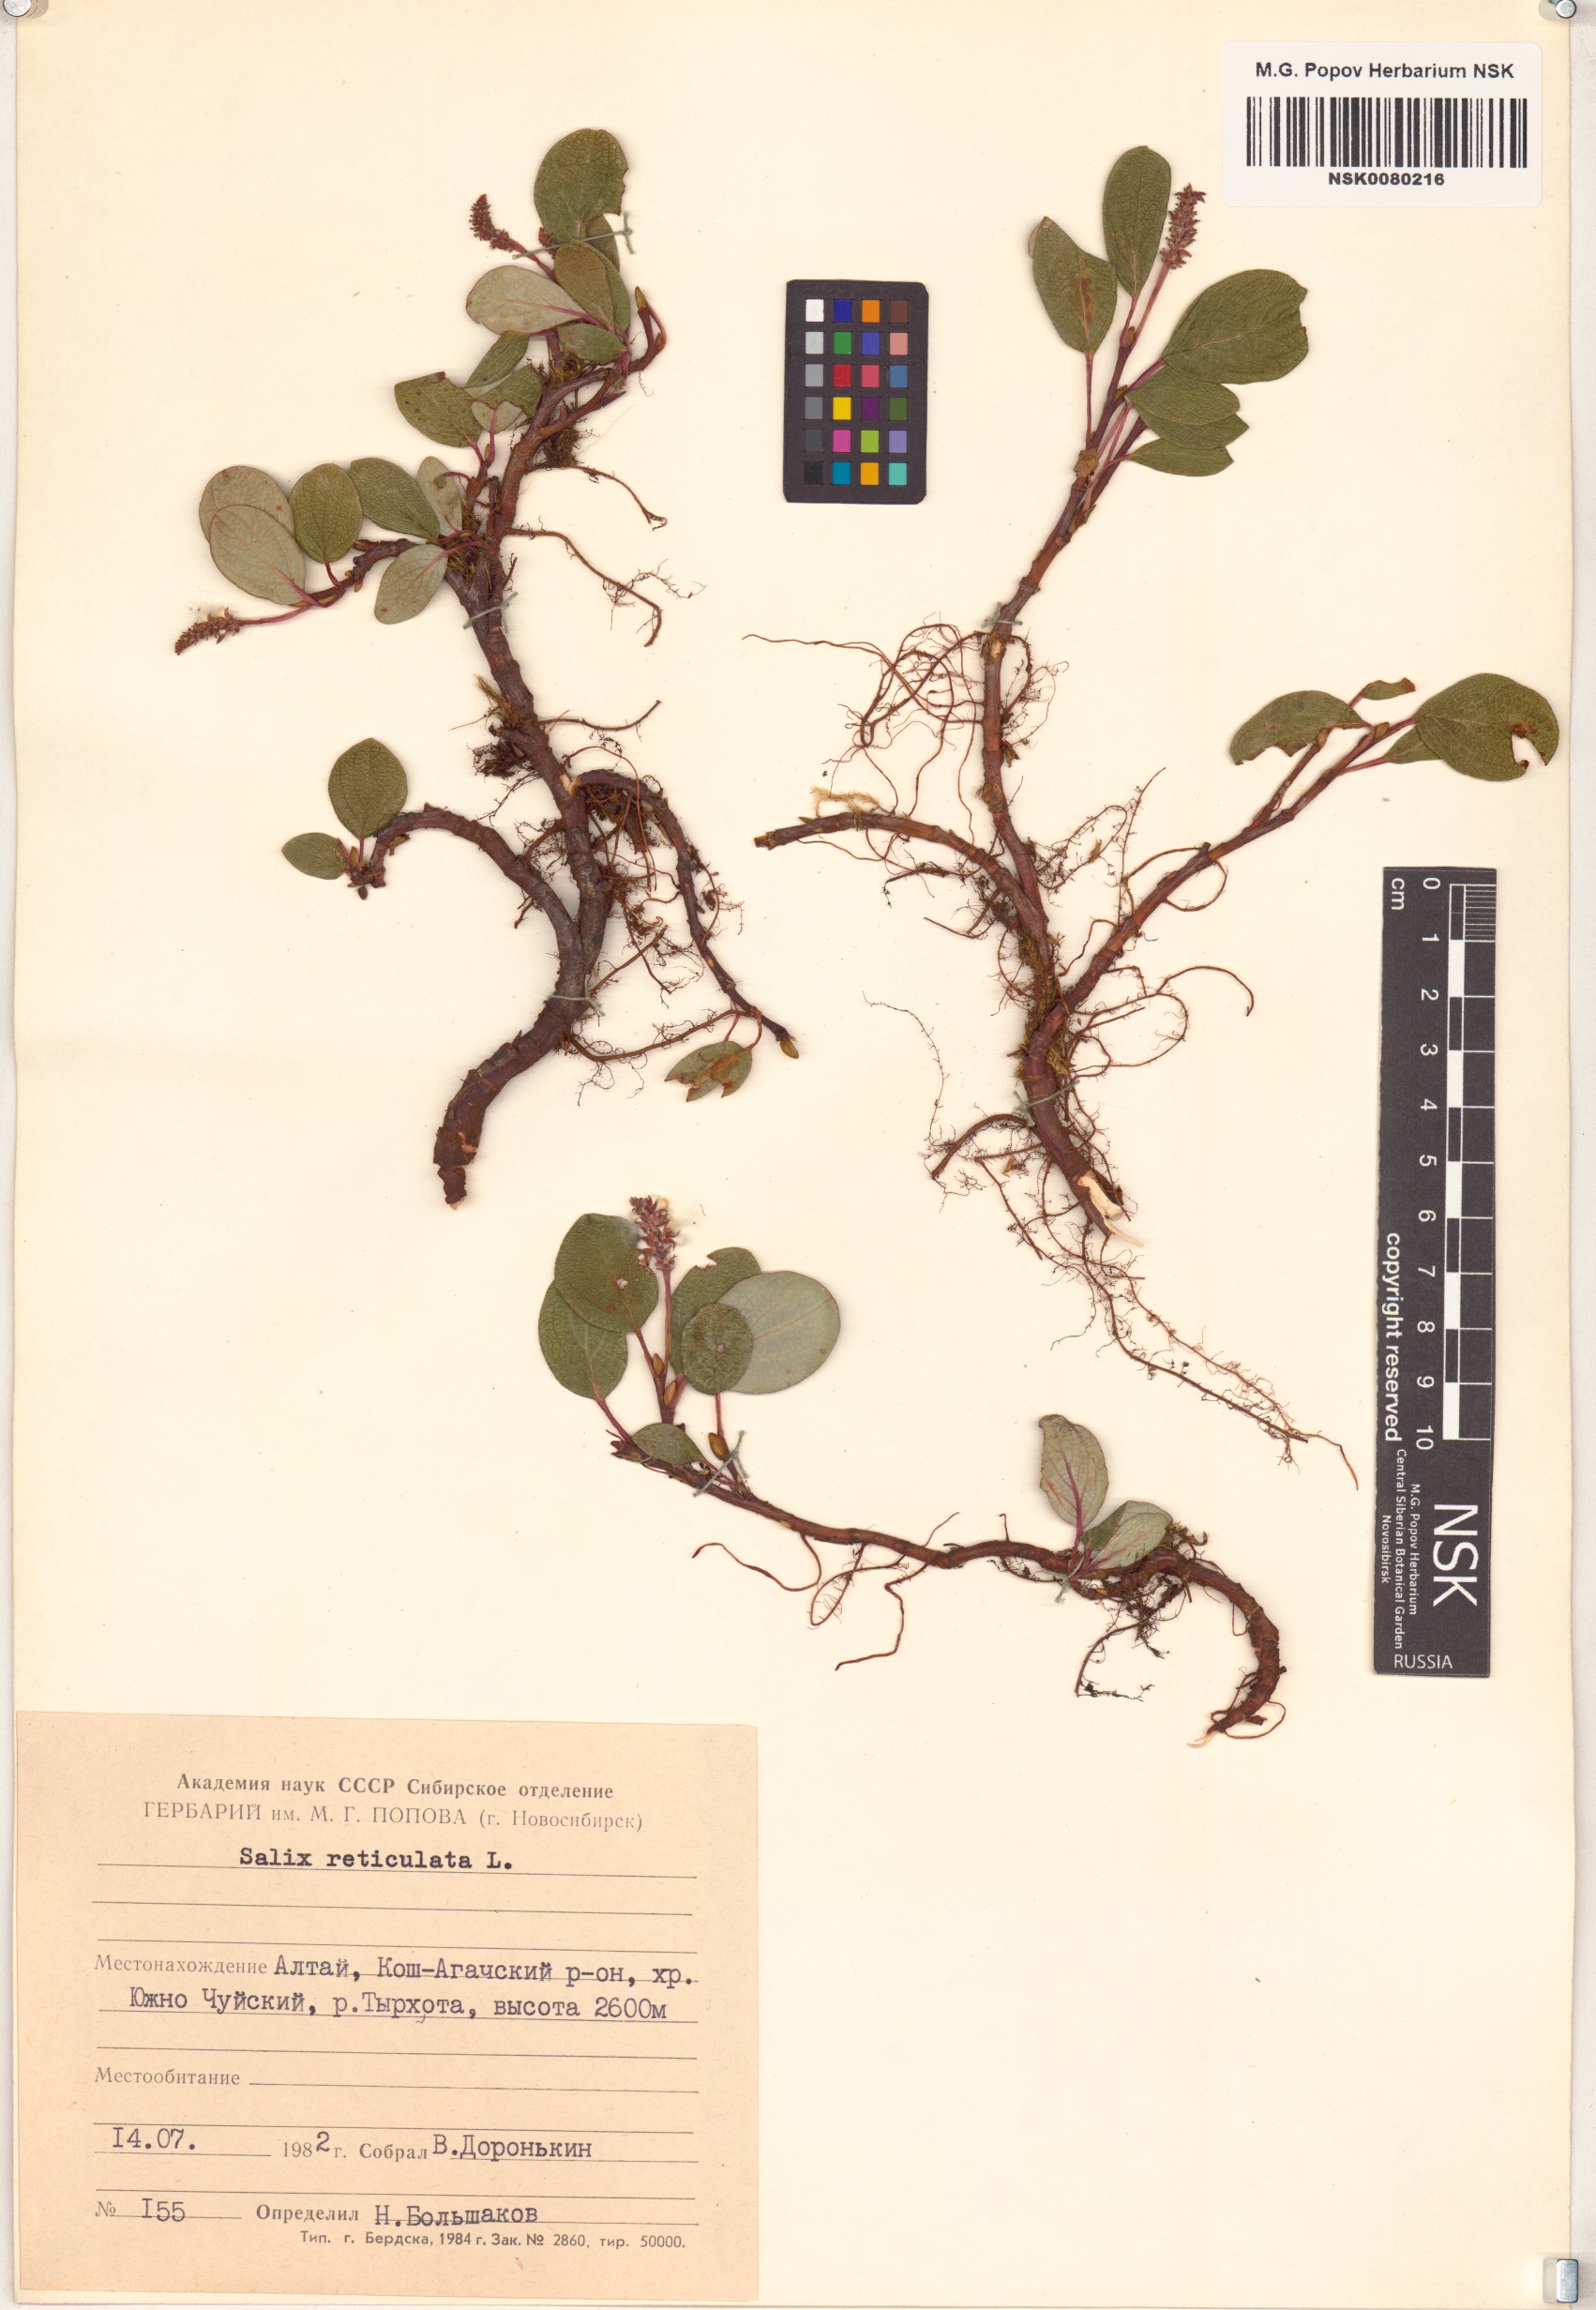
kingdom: Plantae
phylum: Tracheophyta
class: Magnoliopsida
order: Malpighiales
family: Salicaceae
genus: Salix
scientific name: Salix reticulata
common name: Net-leaved willow
